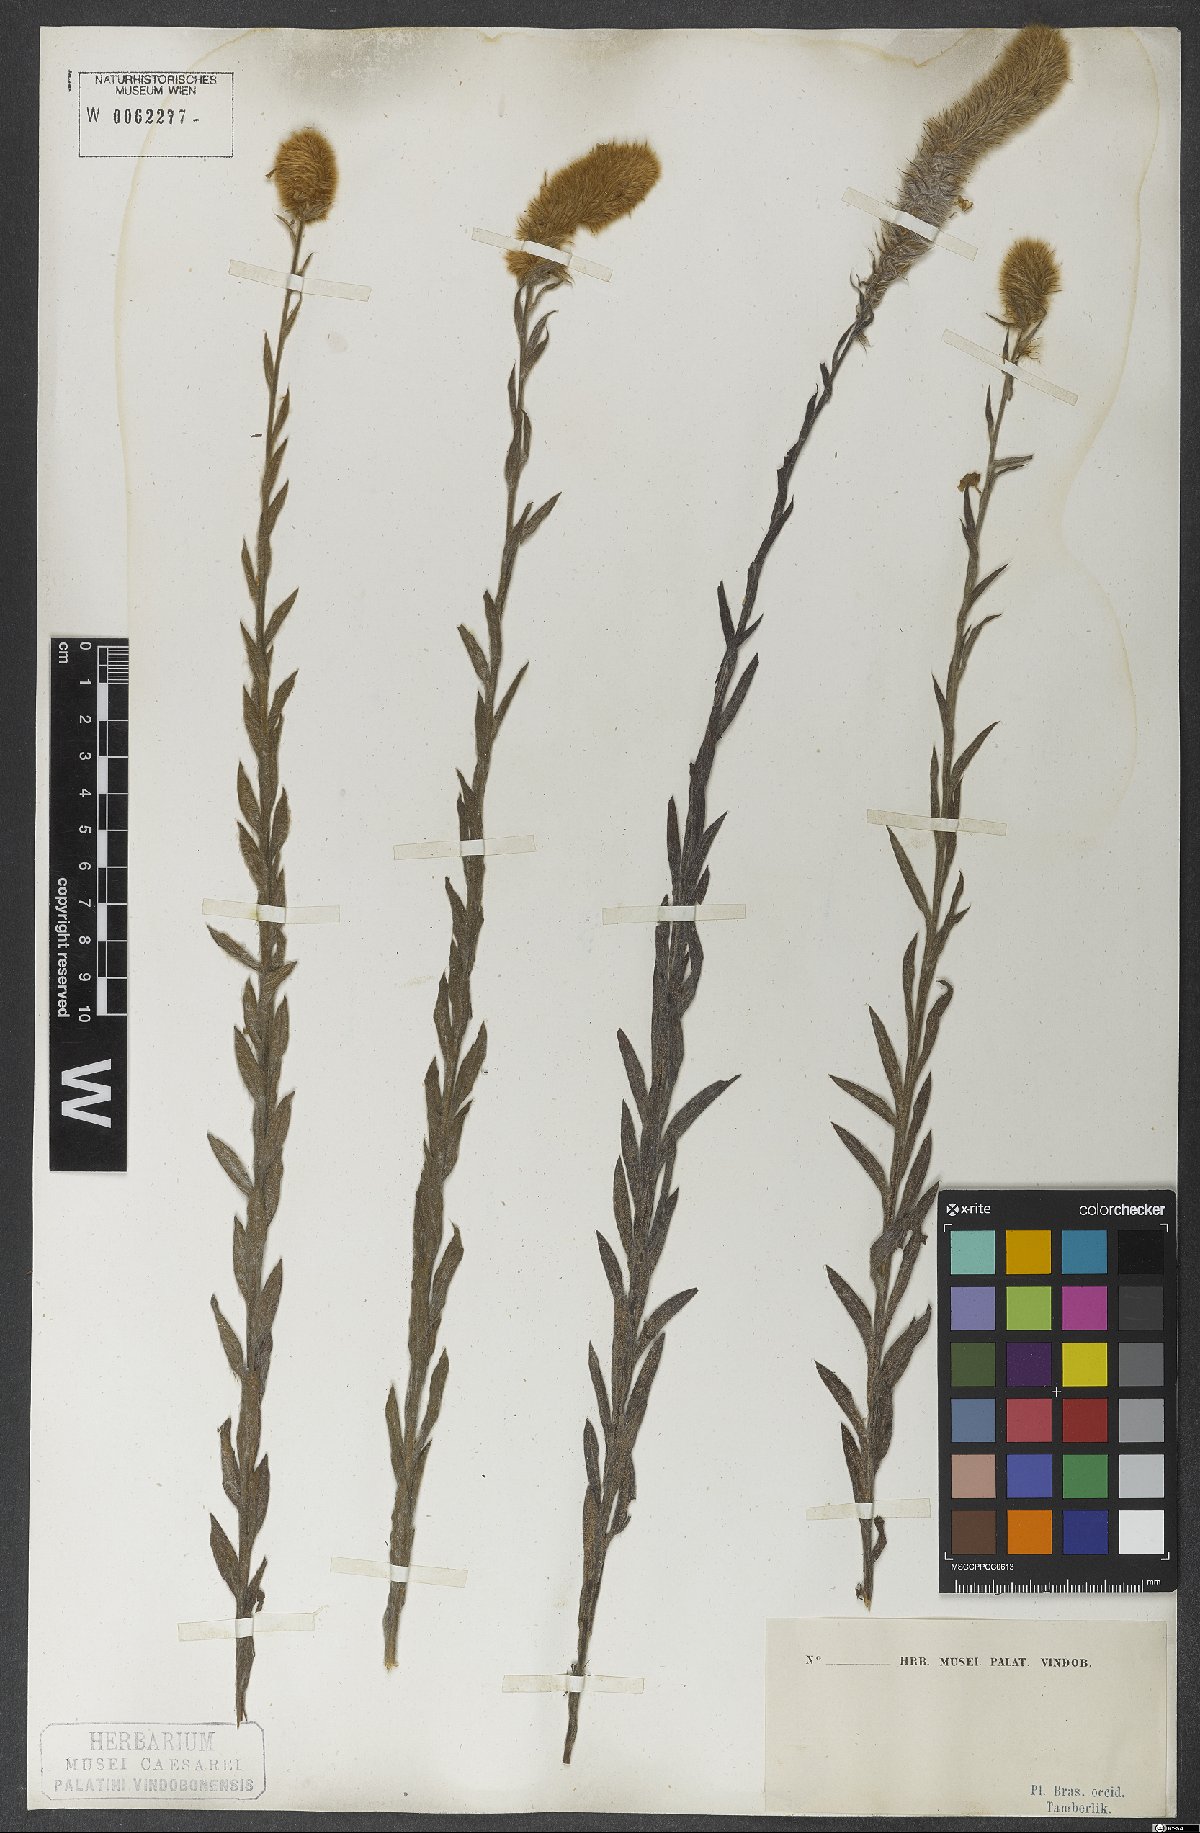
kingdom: Plantae
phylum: Tracheophyta
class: Magnoliopsida
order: Solanales
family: Convolvulaceae
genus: Evolvulus
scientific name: Evolvulus pterocaulon
